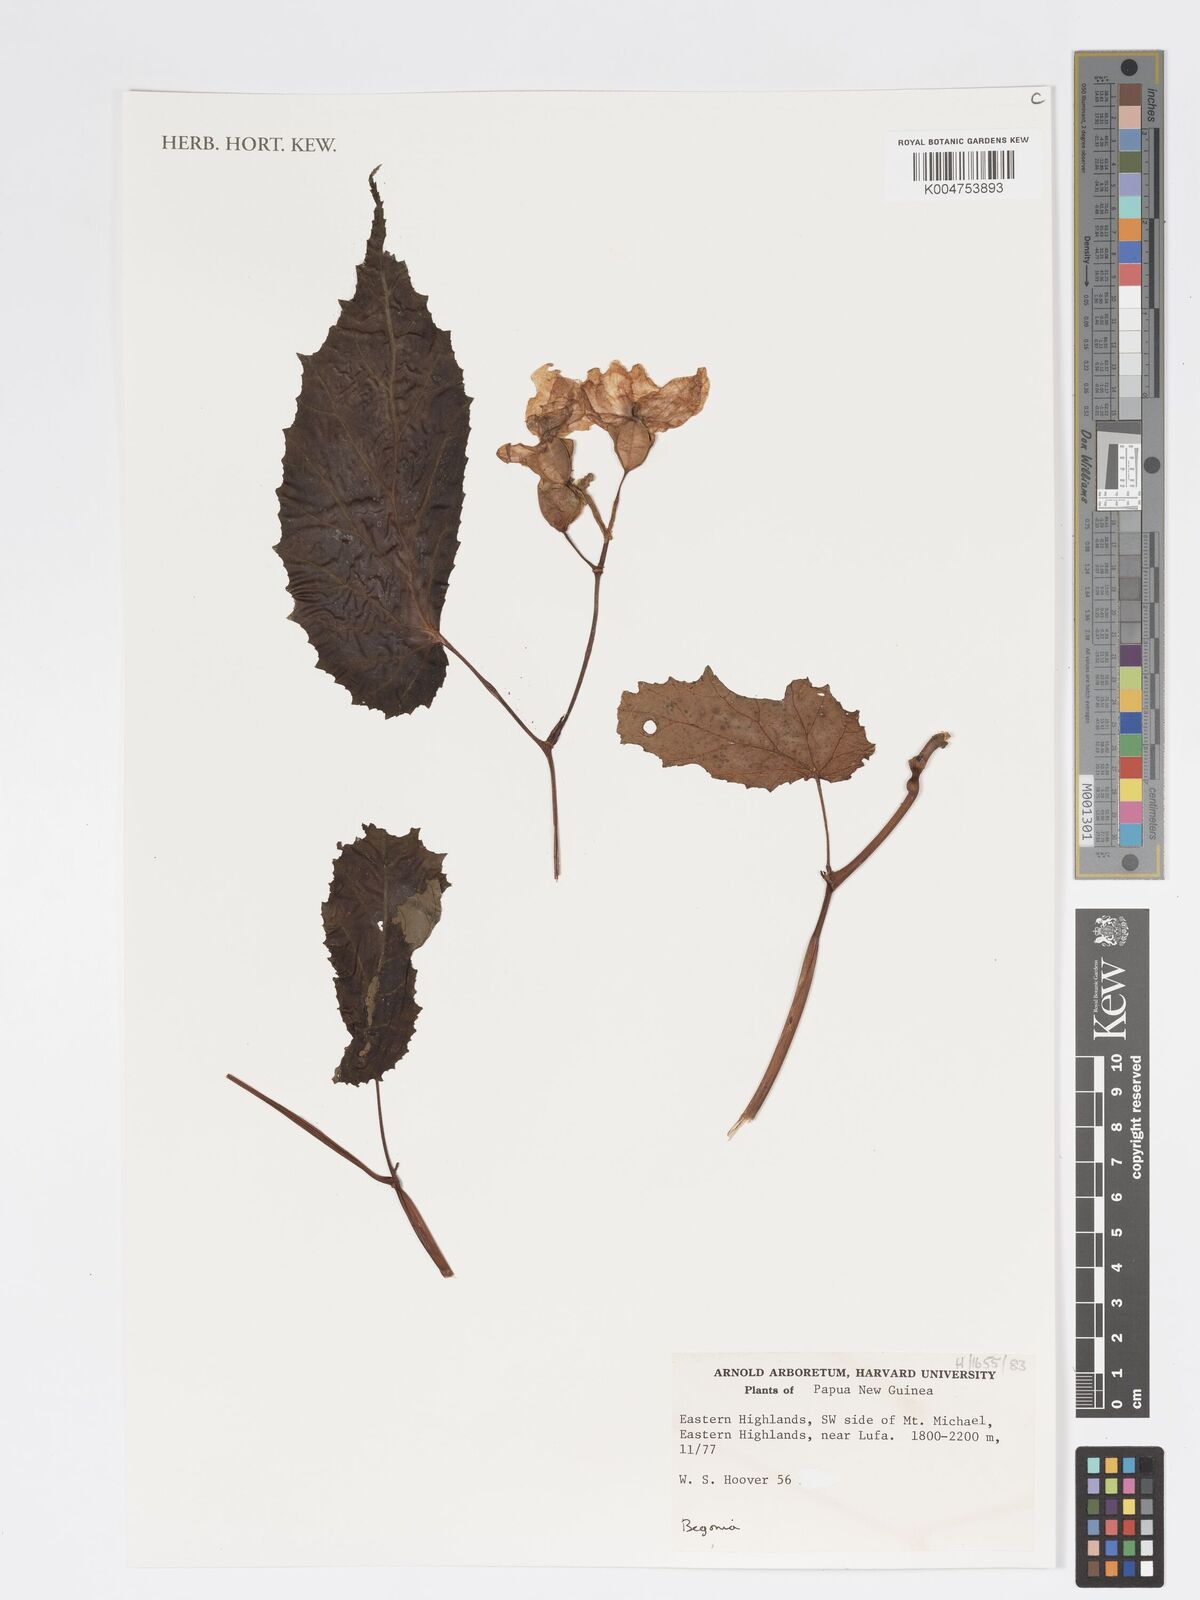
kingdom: Plantae
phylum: Tracheophyta
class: Magnoliopsida
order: Cucurbitales
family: Begoniaceae
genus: Begonia
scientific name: Begonia
